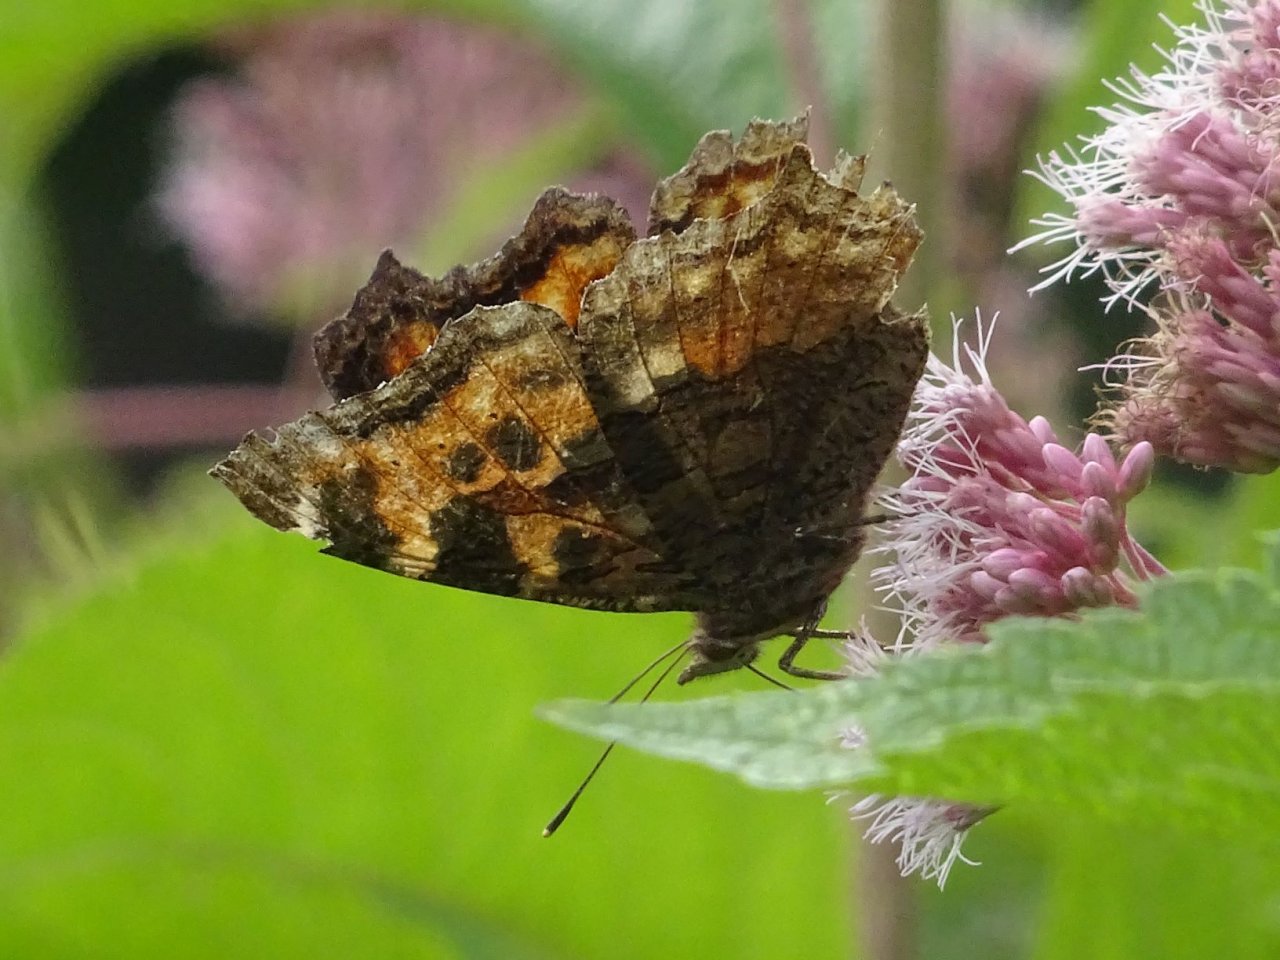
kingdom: Animalia
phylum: Arthropoda
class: Insecta
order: Lepidoptera
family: Nymphalidae
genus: Polygonia
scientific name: Polygonia vaualbum
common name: Compton Tortoiseshell
